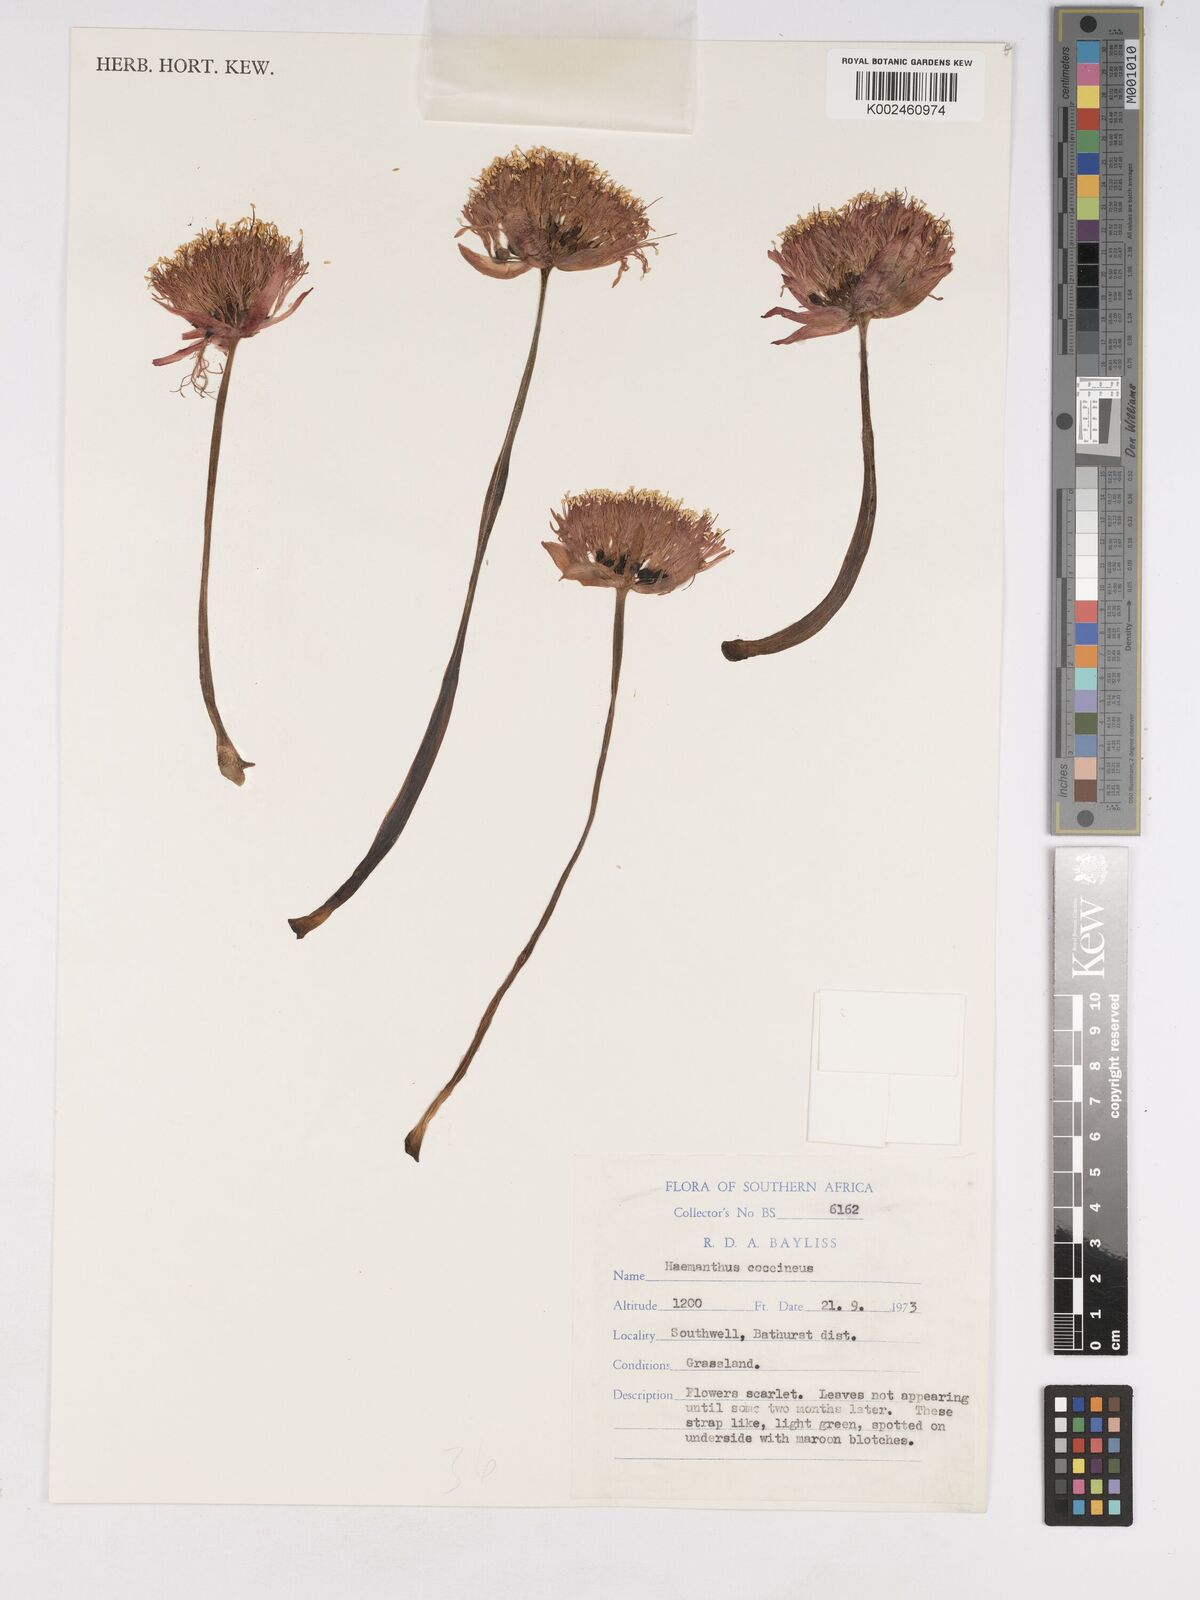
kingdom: Plantae
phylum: Tracheophyta
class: Liliopsida
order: Asparagales
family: Amaryllidaceae
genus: Haemanthus
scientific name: Haemanthus coccineus
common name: Cape-tulip
